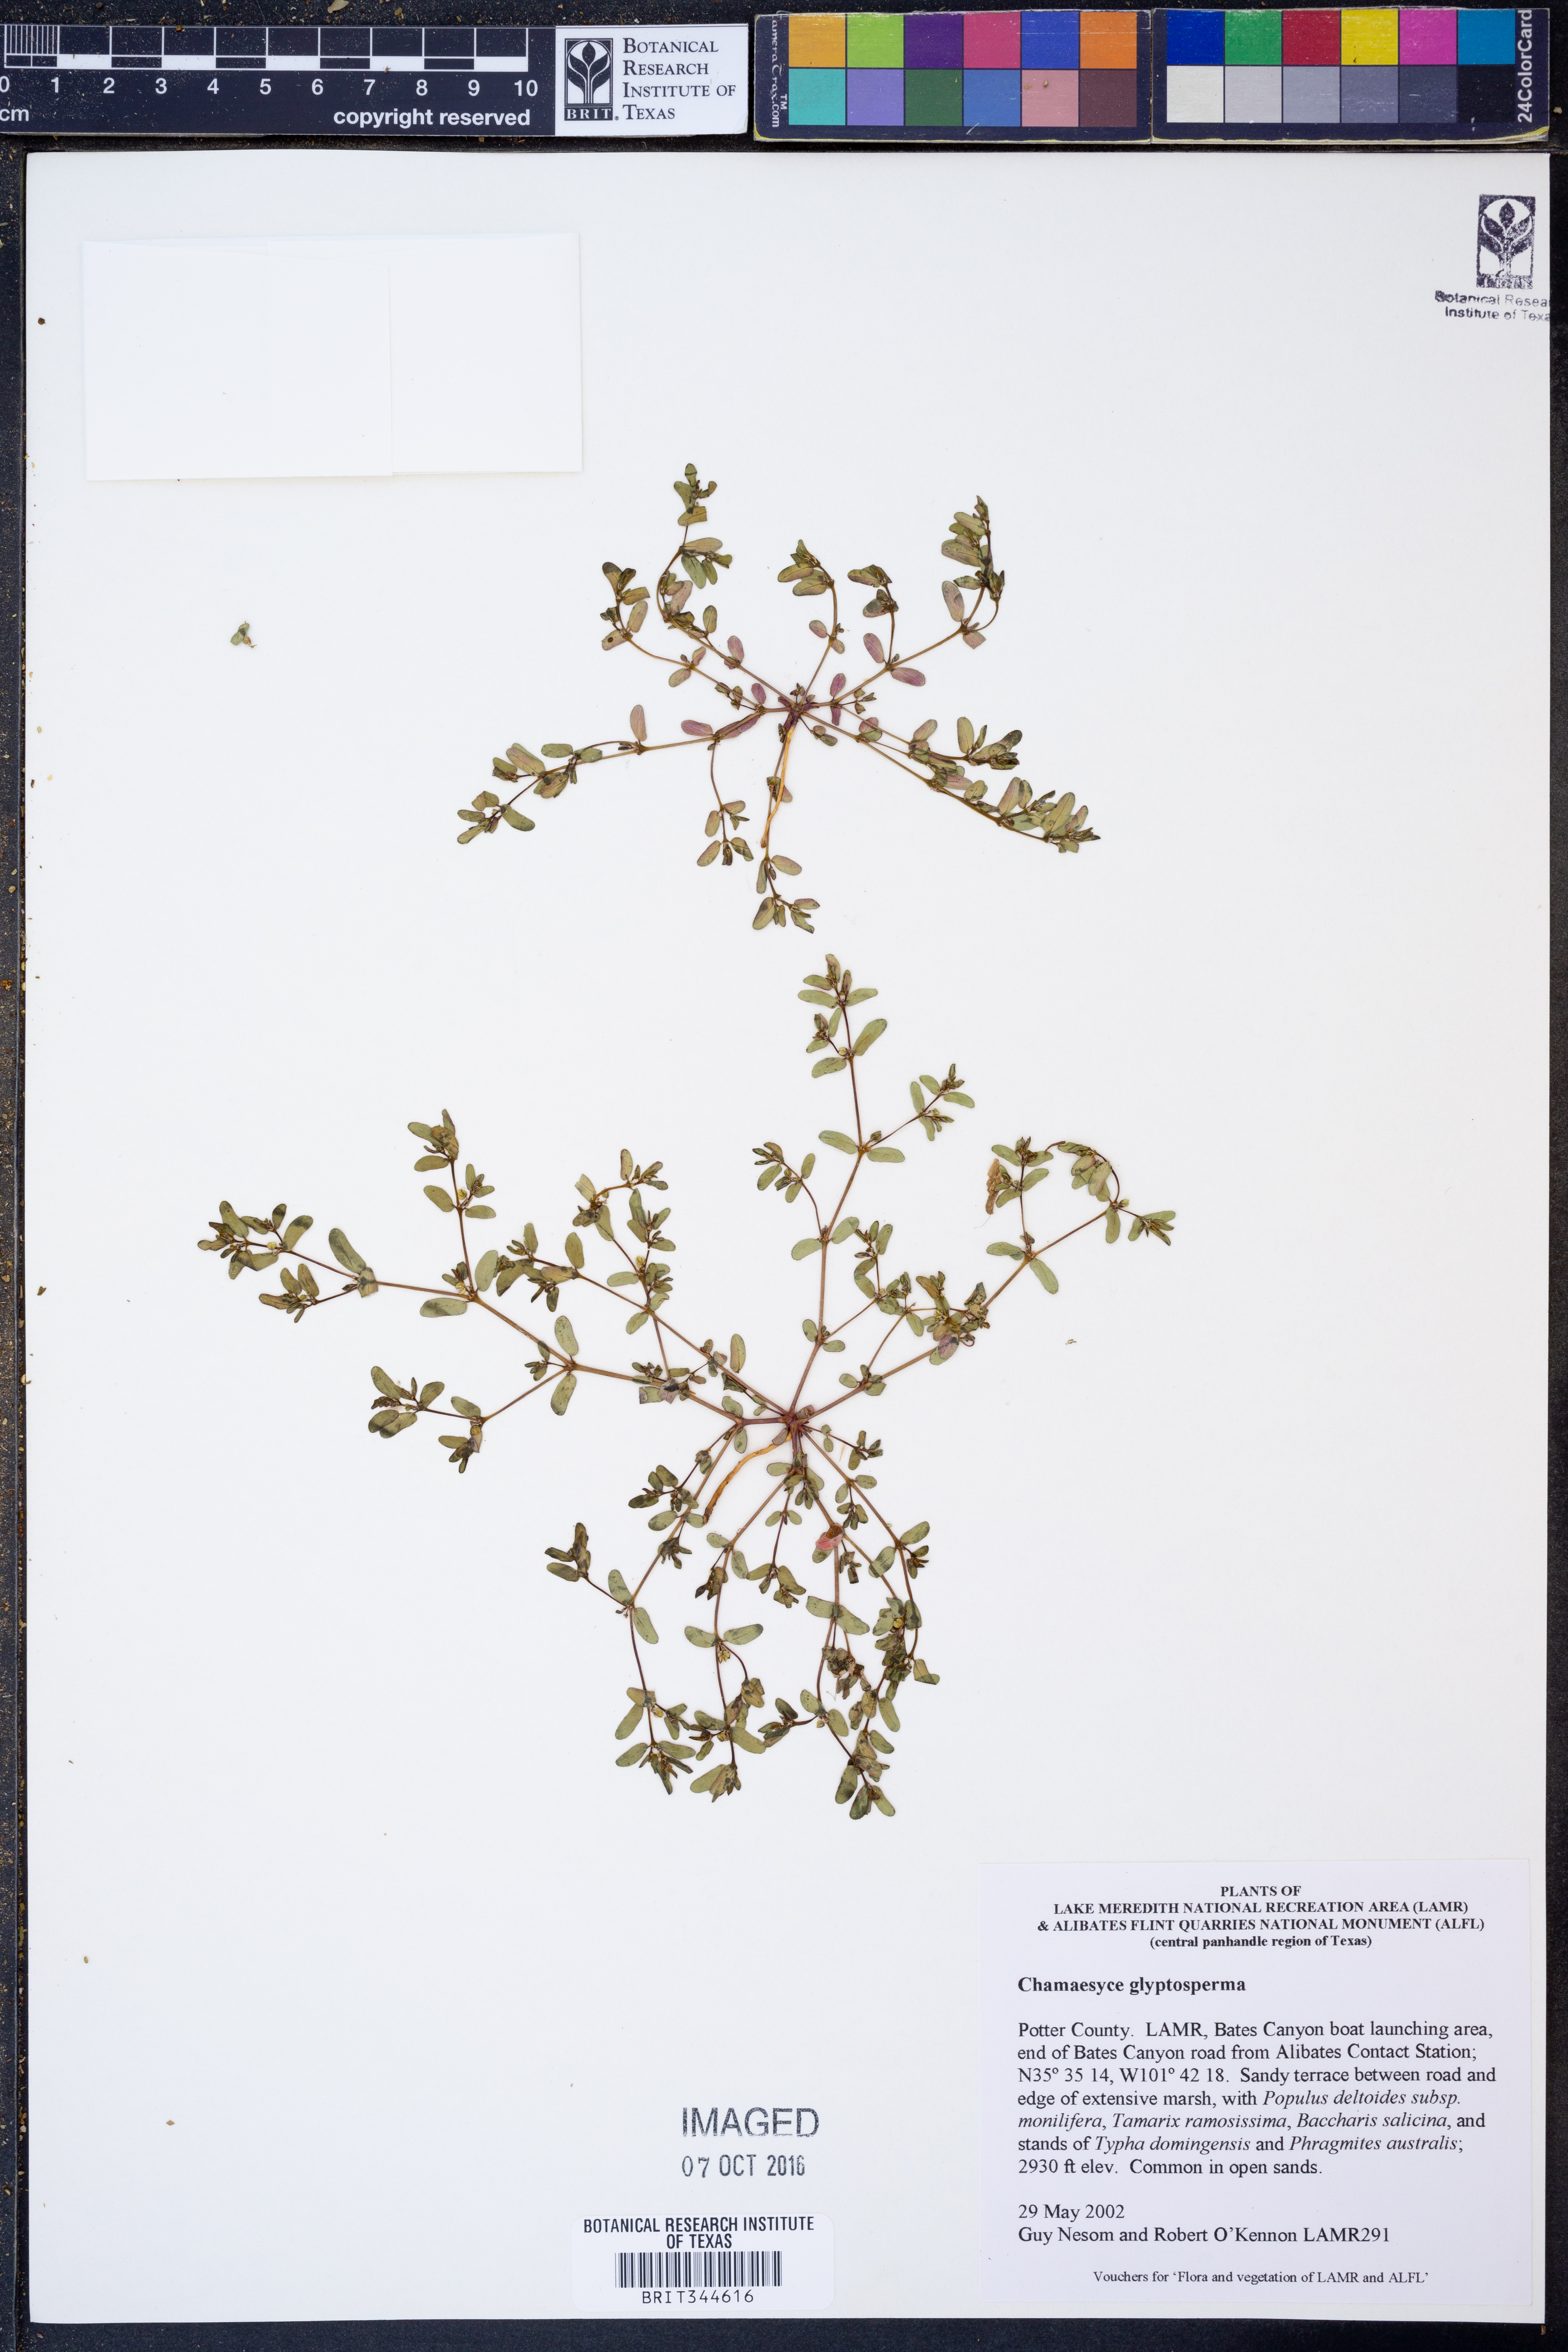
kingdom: Plantae
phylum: Tracheophyta
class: Magnoliopsida
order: Malpighiales
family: Euphorbiaceae
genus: Euphorbia
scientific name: Euphorbia glyptosperma
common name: Corrugate-seeded spurge
